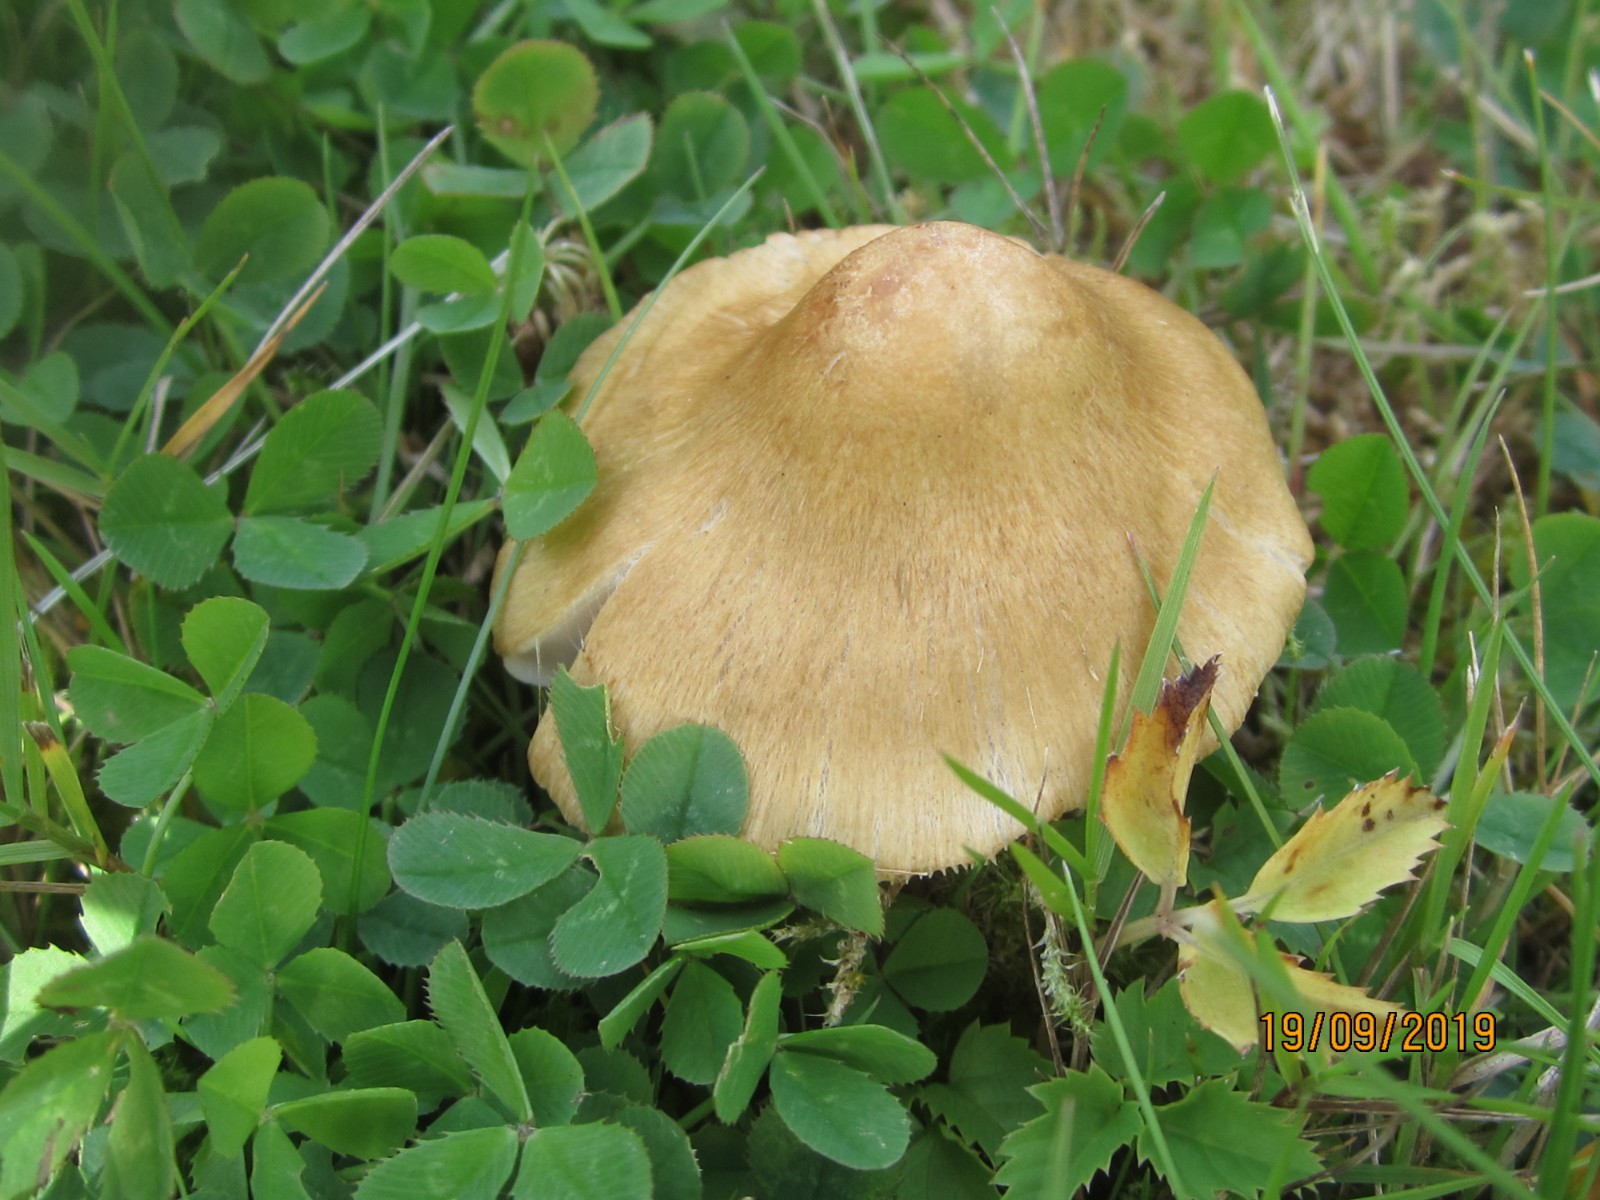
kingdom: Fungi
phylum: Basidiomycota
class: Agaricomycetes
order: Agaricales
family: Inocybaceae
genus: Inocybe
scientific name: Inocybe mixtilis
